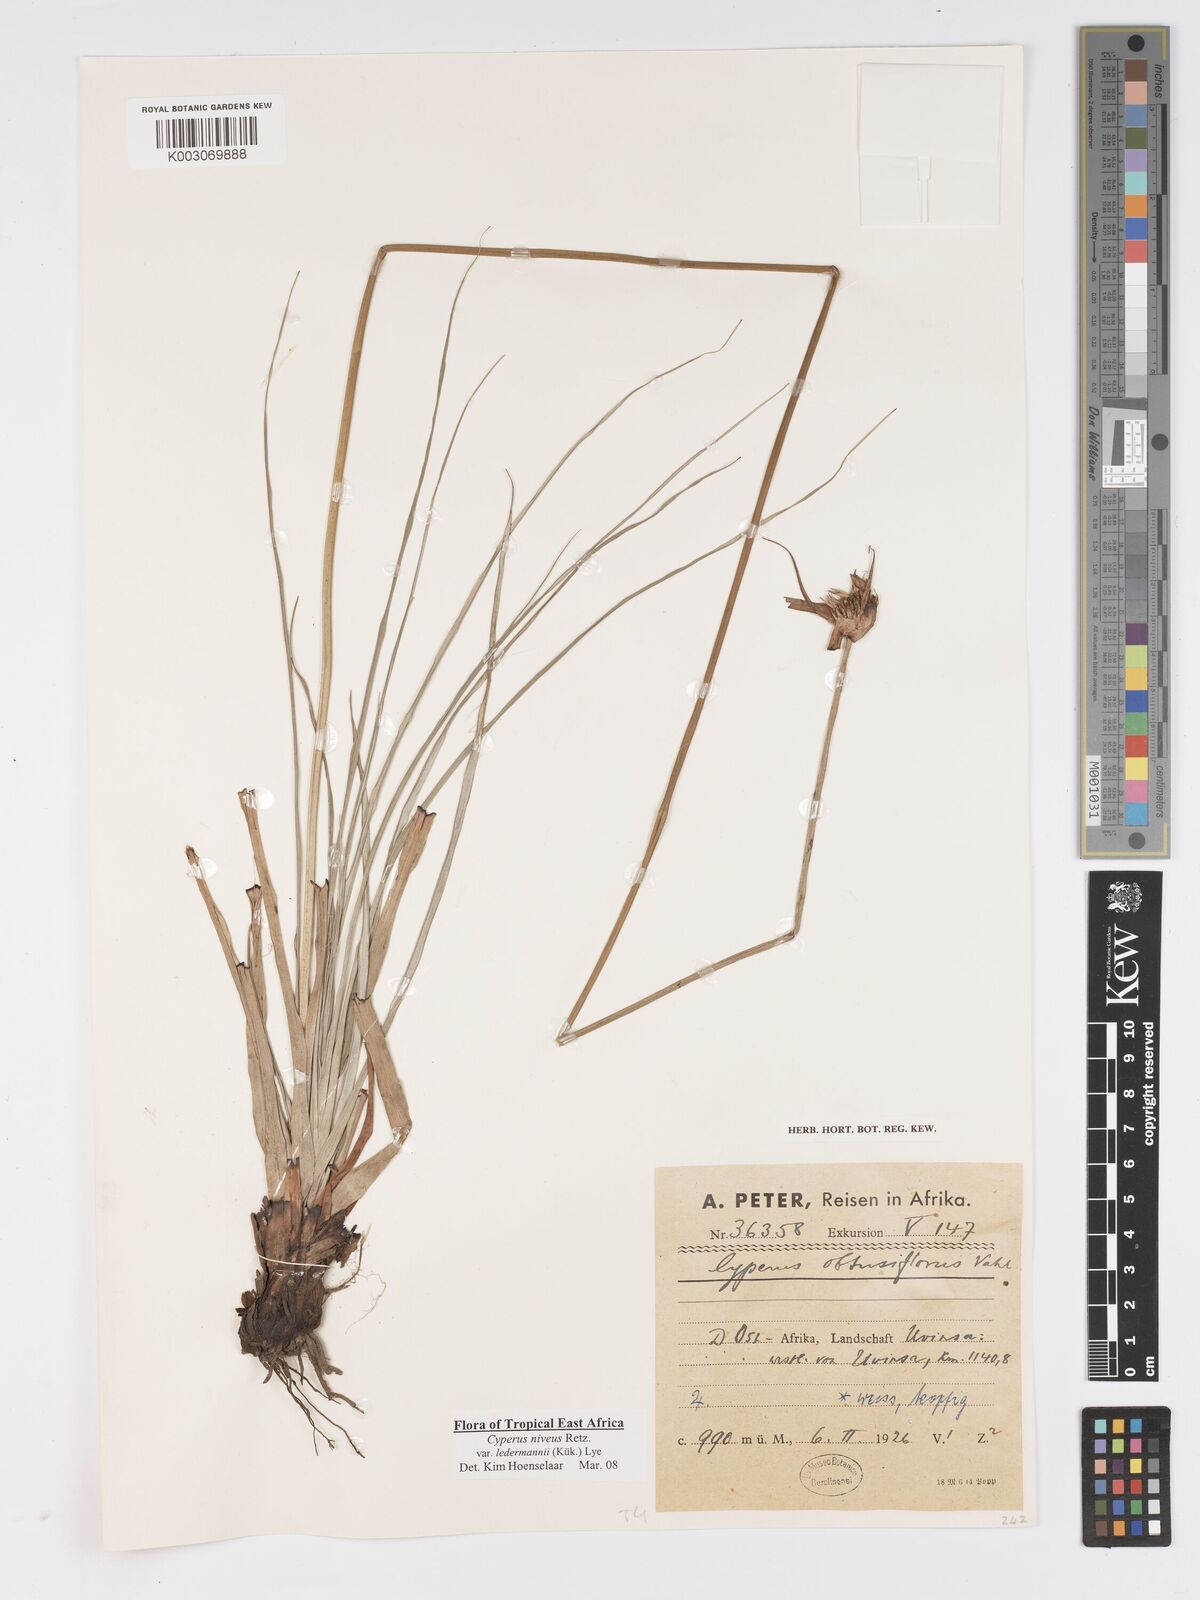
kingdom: Plantae
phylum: Tracheophyta
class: Liliopsida
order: Poales
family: Cyperaceae
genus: Cyperus
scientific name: Cyperus niveus
